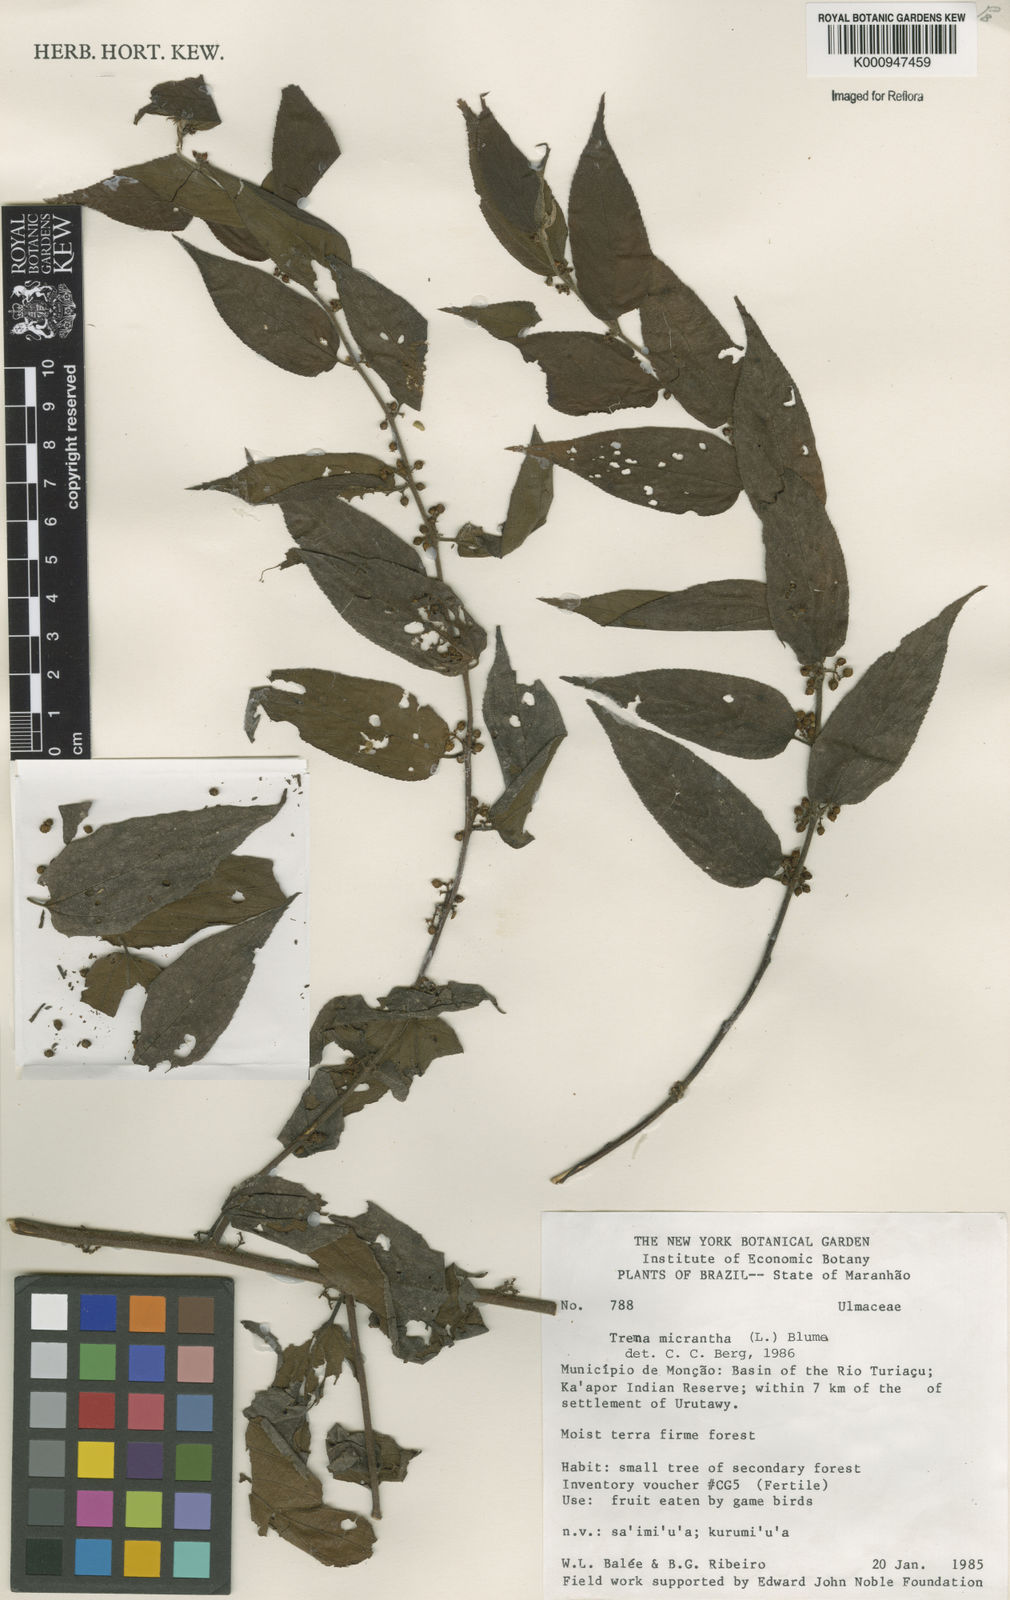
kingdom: Plantae
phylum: Tracheophyta
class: Magnoliopsida
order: Rosales
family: Cannabaceae
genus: Trema
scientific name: Trema micranthum
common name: Jamaican nettletree
